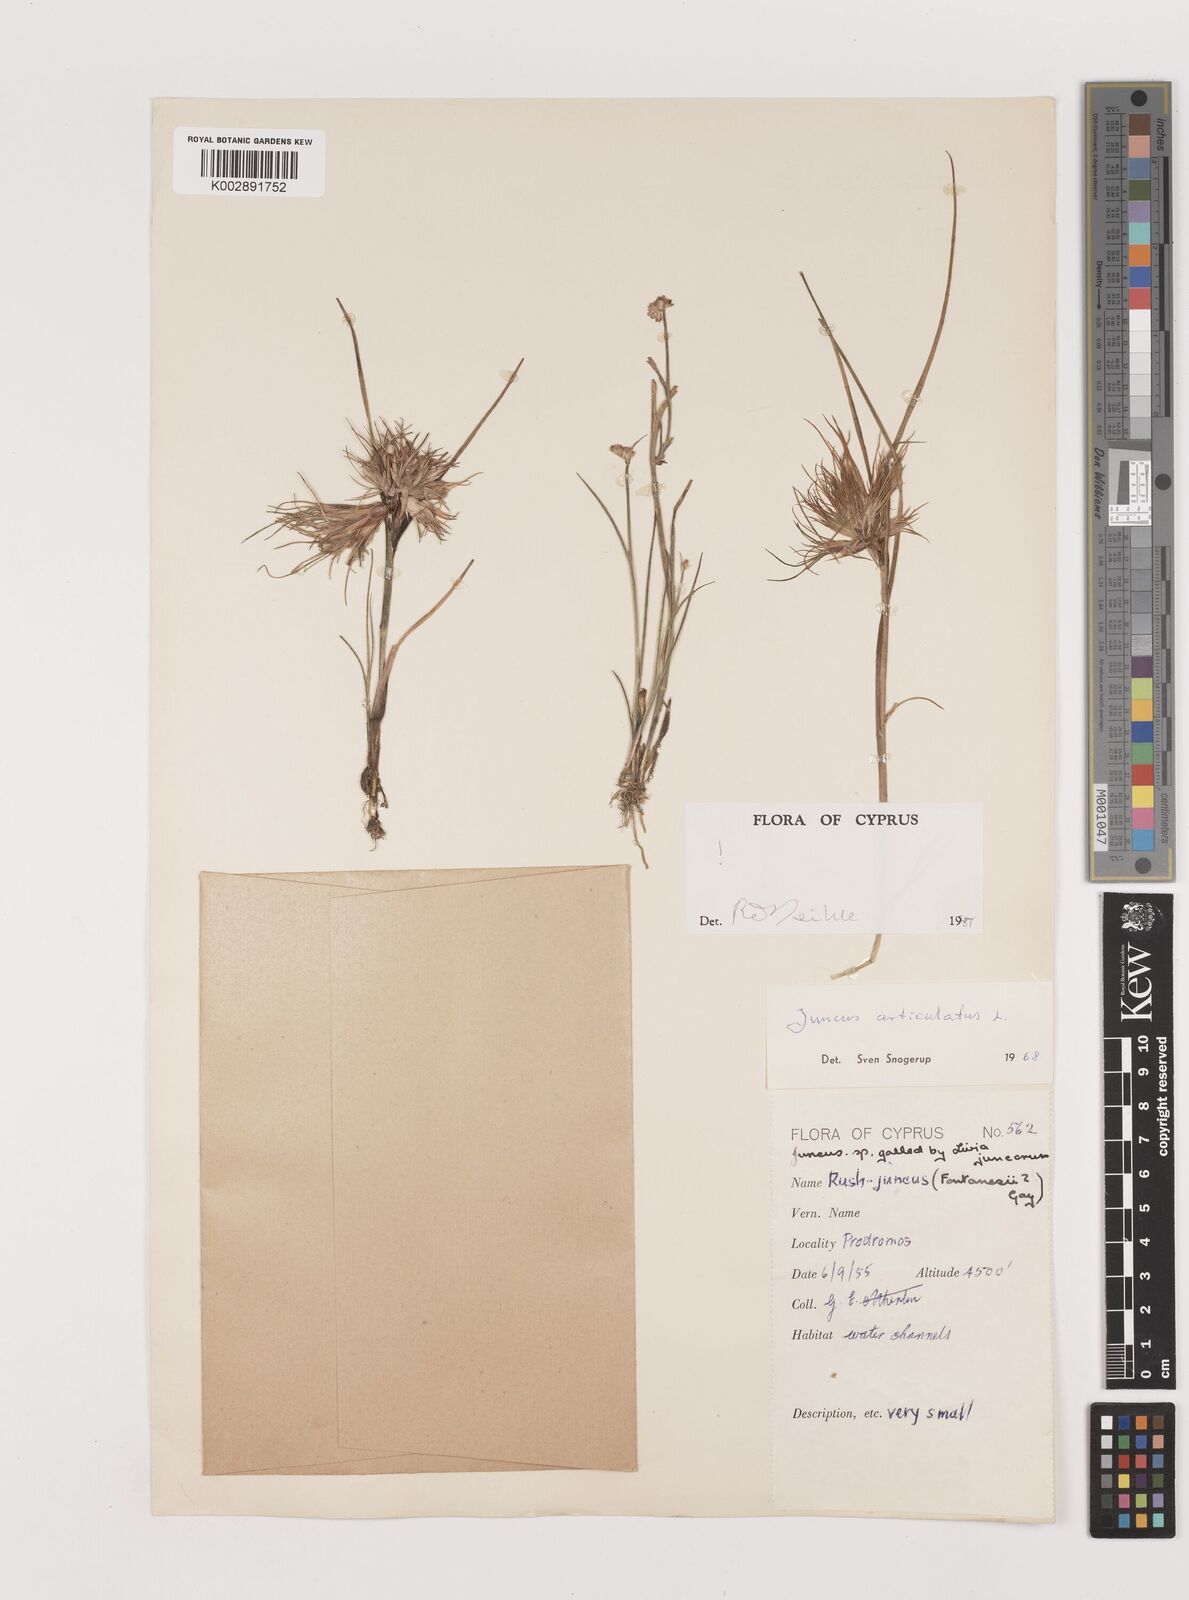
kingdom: Plantae
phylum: Tracheophyta
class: Liliopsida
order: Poales
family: Juncaceae
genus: Juncus
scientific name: Juncus articulatus
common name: Jointed rush
